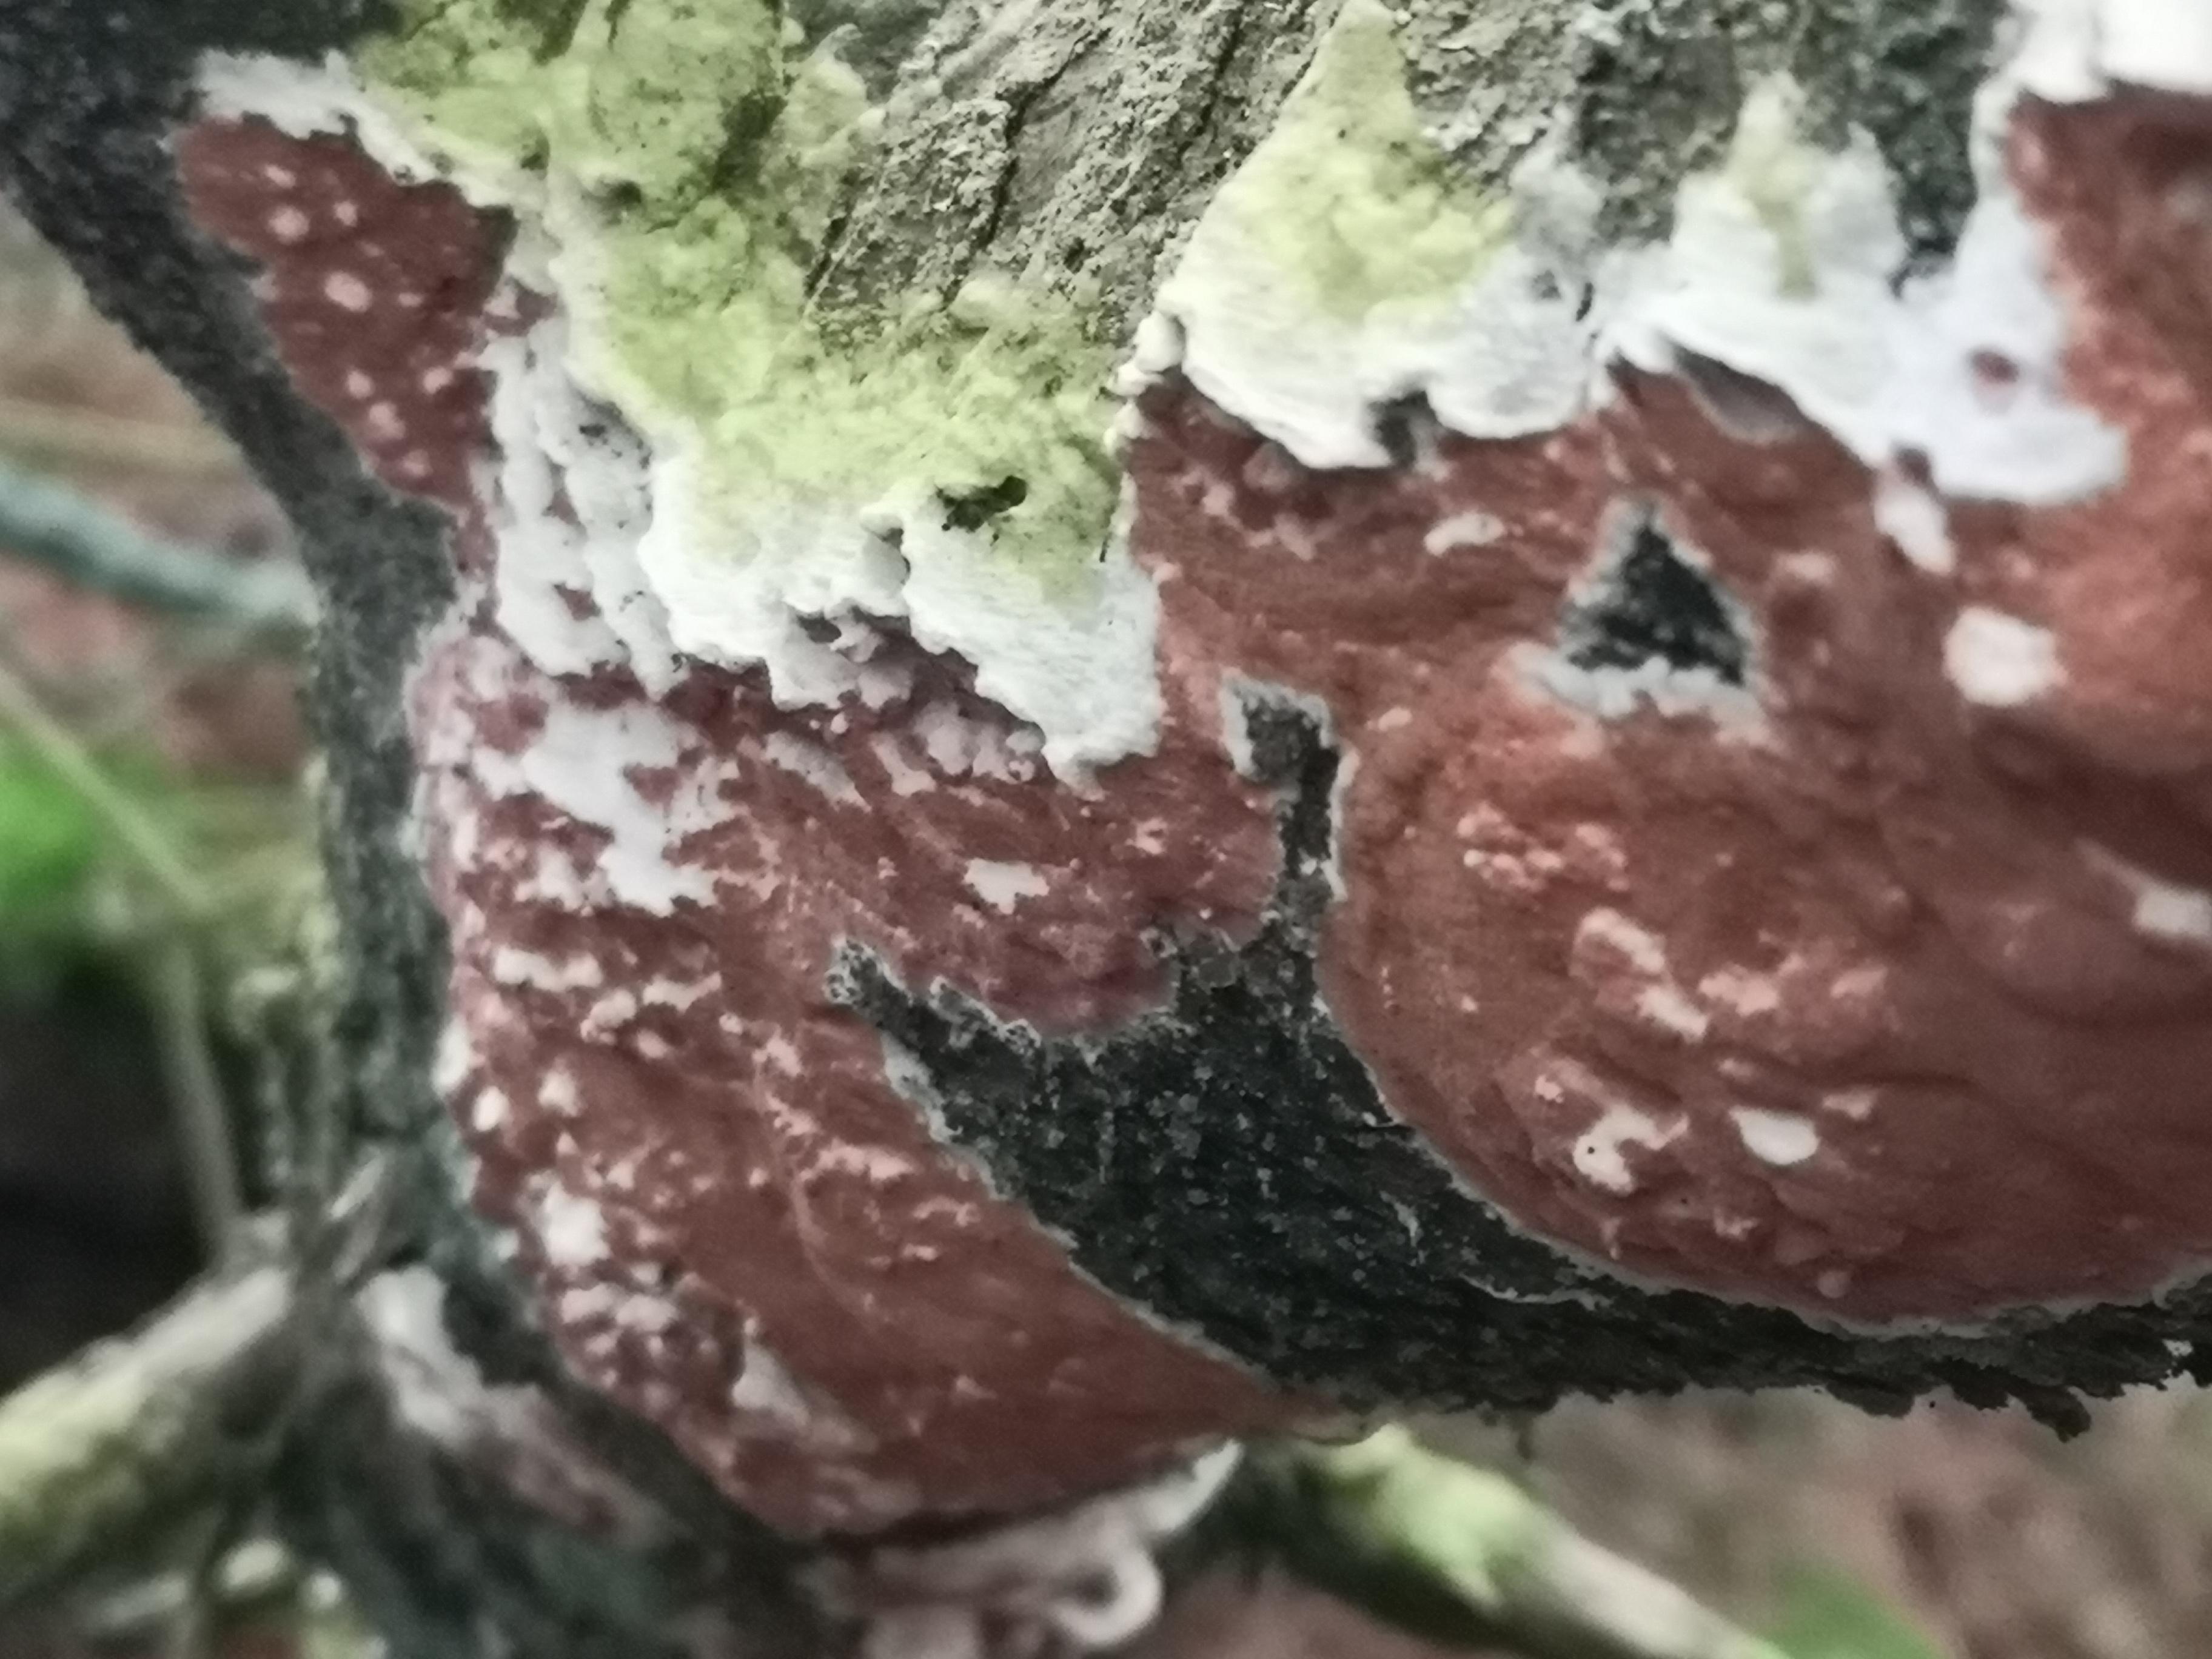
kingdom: Fungi
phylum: Basidiomycota
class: Agaricomycetes
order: Polyporales
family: Irpicaceae
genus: Meruliopsis
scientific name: Meruliopsis taxicola
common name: purpurbrun foldporesvamp
